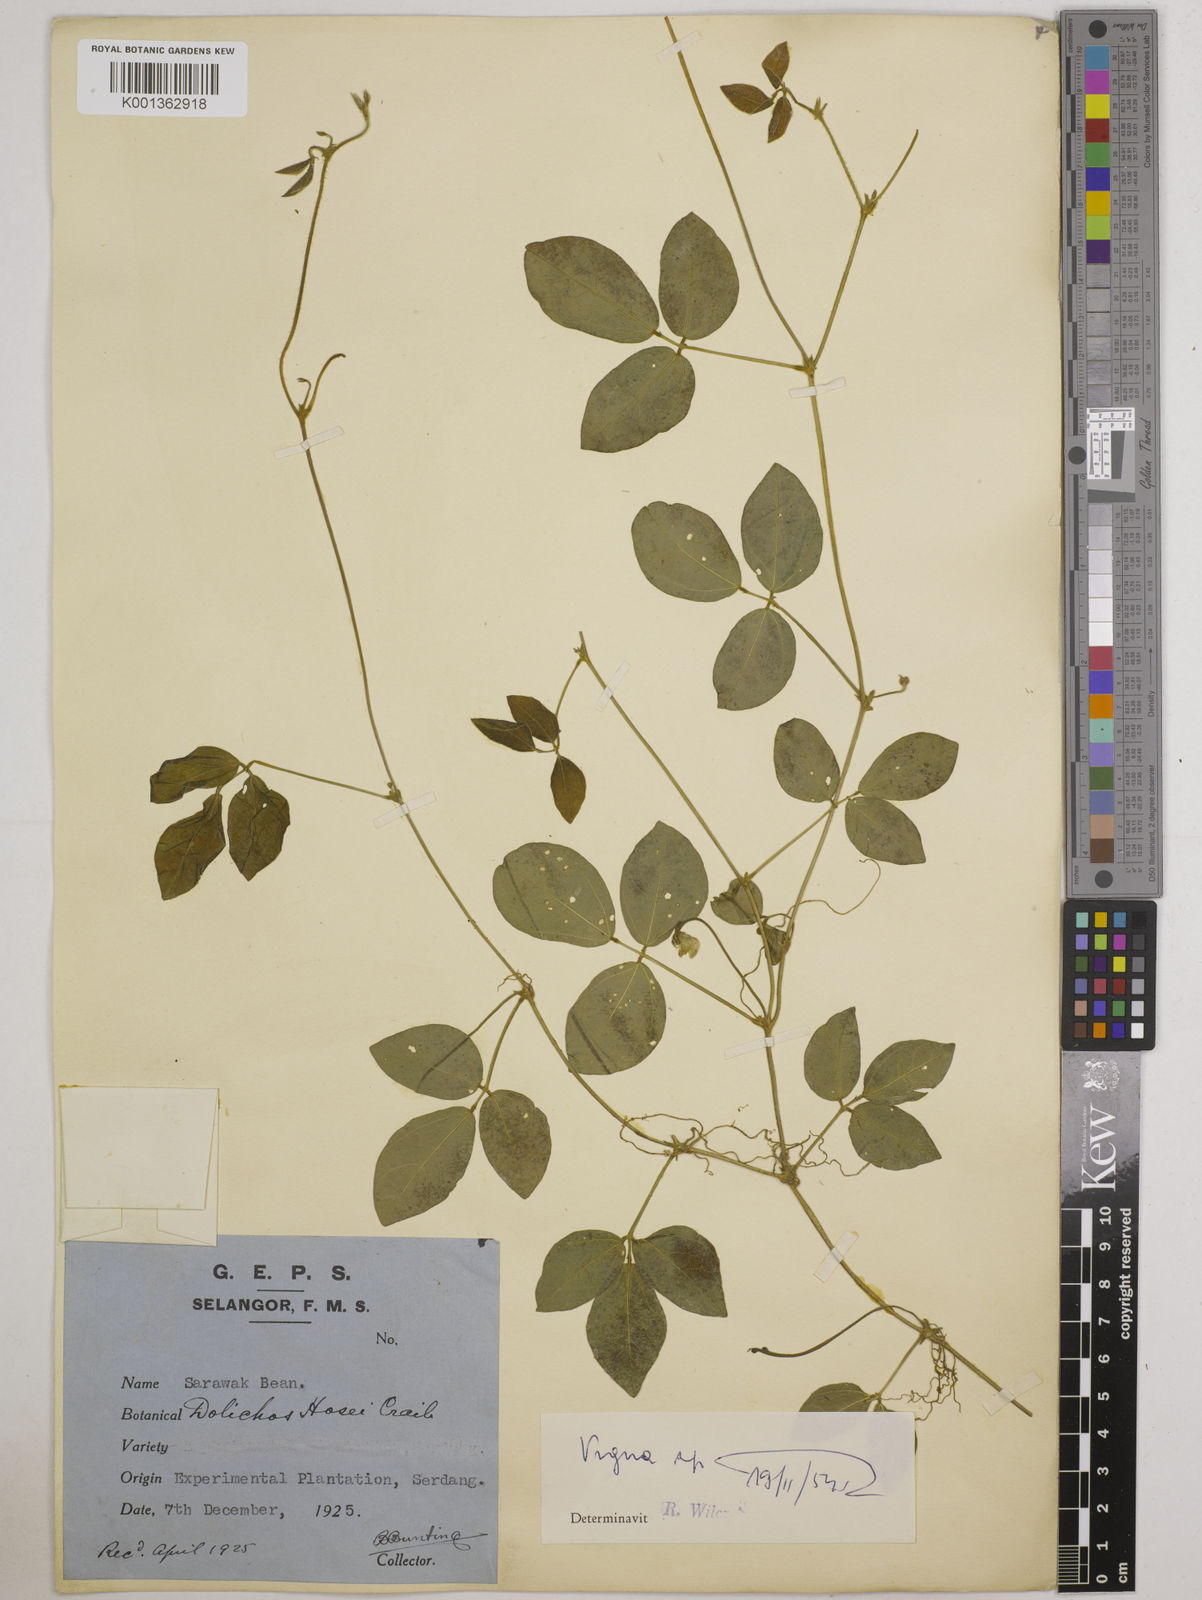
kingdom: Plantae
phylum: Tracheophyta
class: Magnoliopsida
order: Fabales
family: Fabaceae
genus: Vigna
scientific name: Vigna hosei
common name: Sarawak-bean
